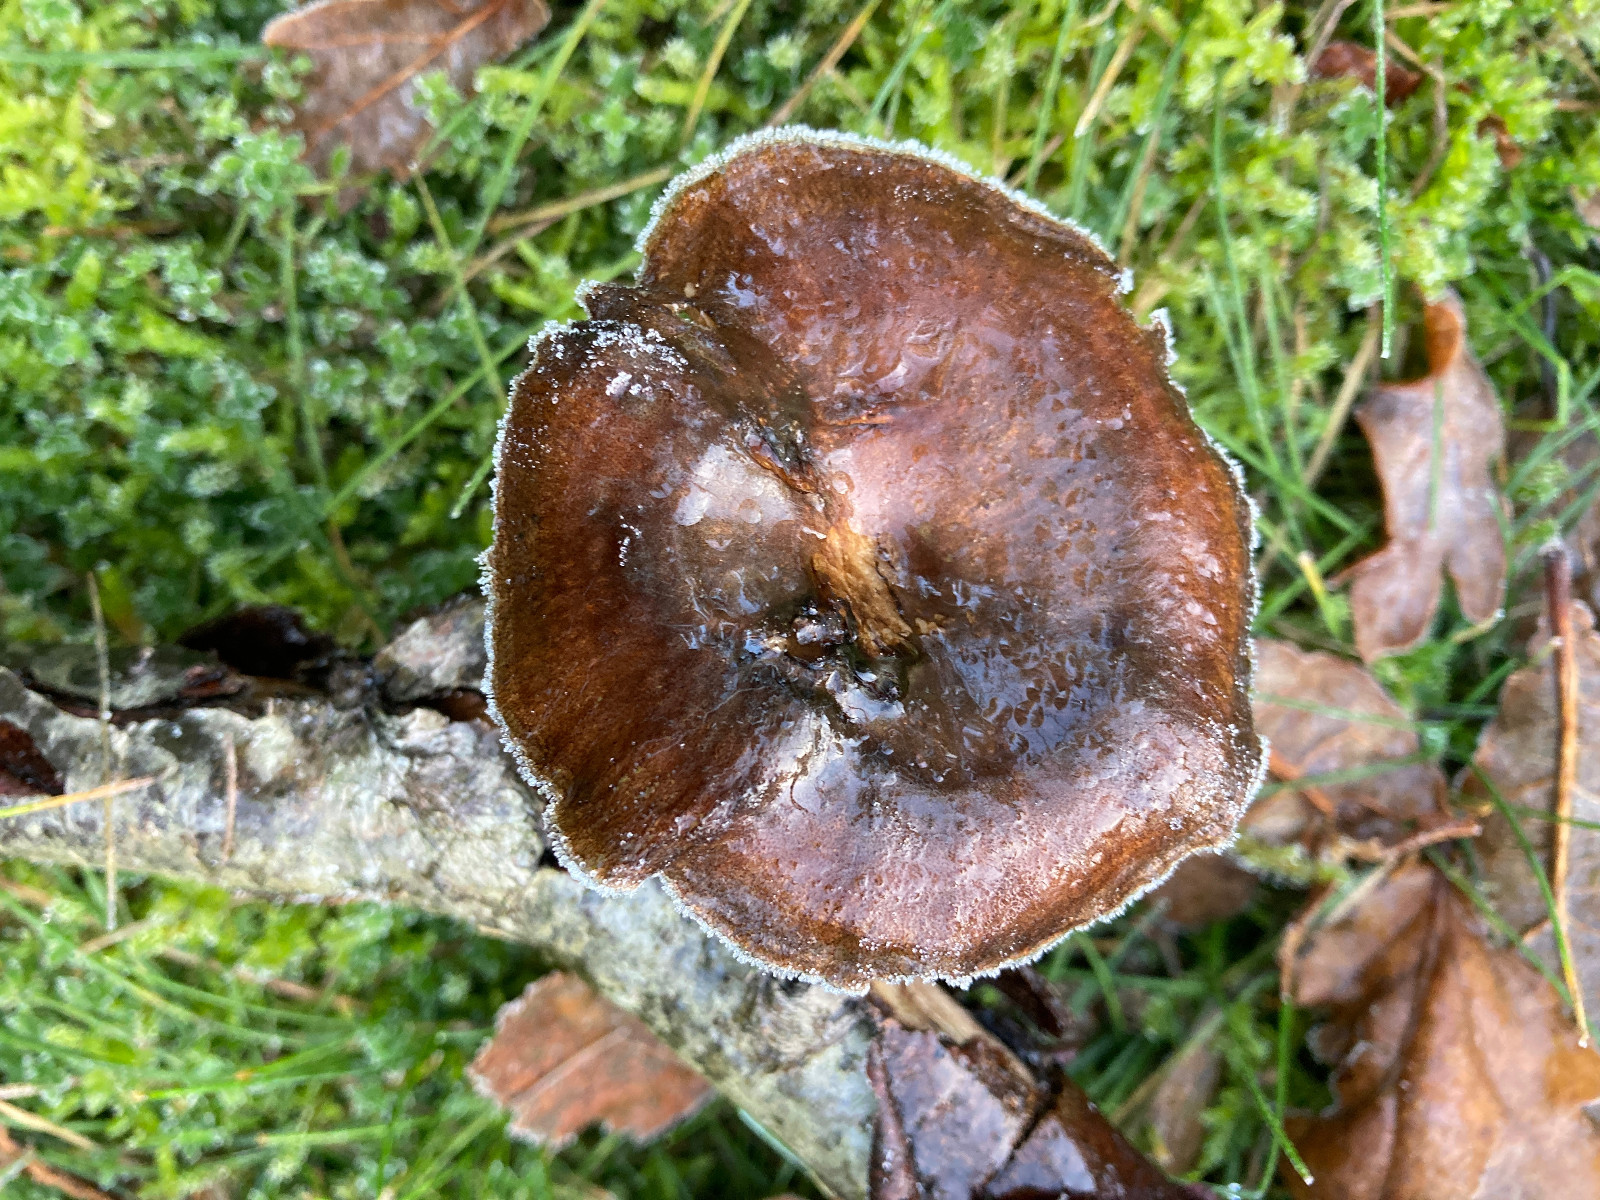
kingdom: Fungi
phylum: Basidiomycota
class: Agaricomycetes
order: Polyporales
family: Polyporaceae
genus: Lentinus
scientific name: Lentinus brumalis
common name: vinter-stilkporesvamp
